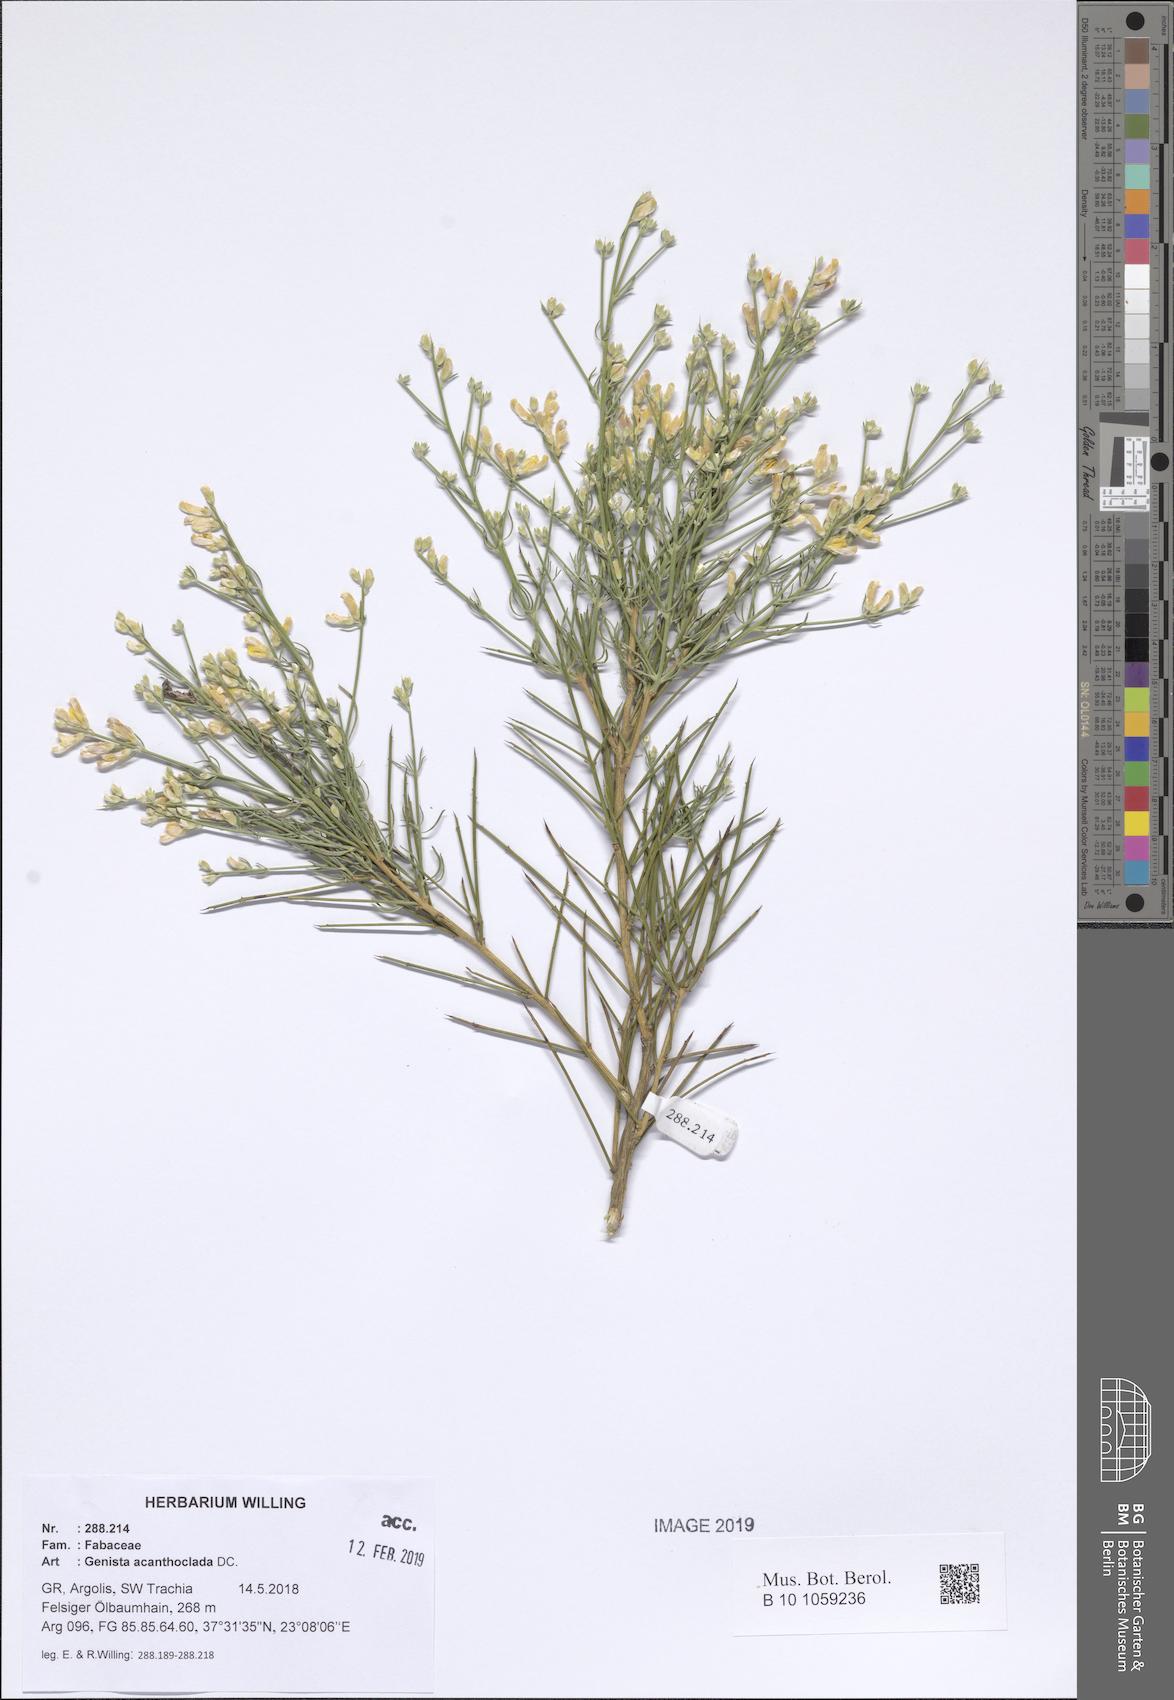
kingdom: Plantae
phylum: Tracheophyta
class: Magnoliopsida
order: Fabales
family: Fabaceae
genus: Genista
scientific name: Genista acanthoclada
